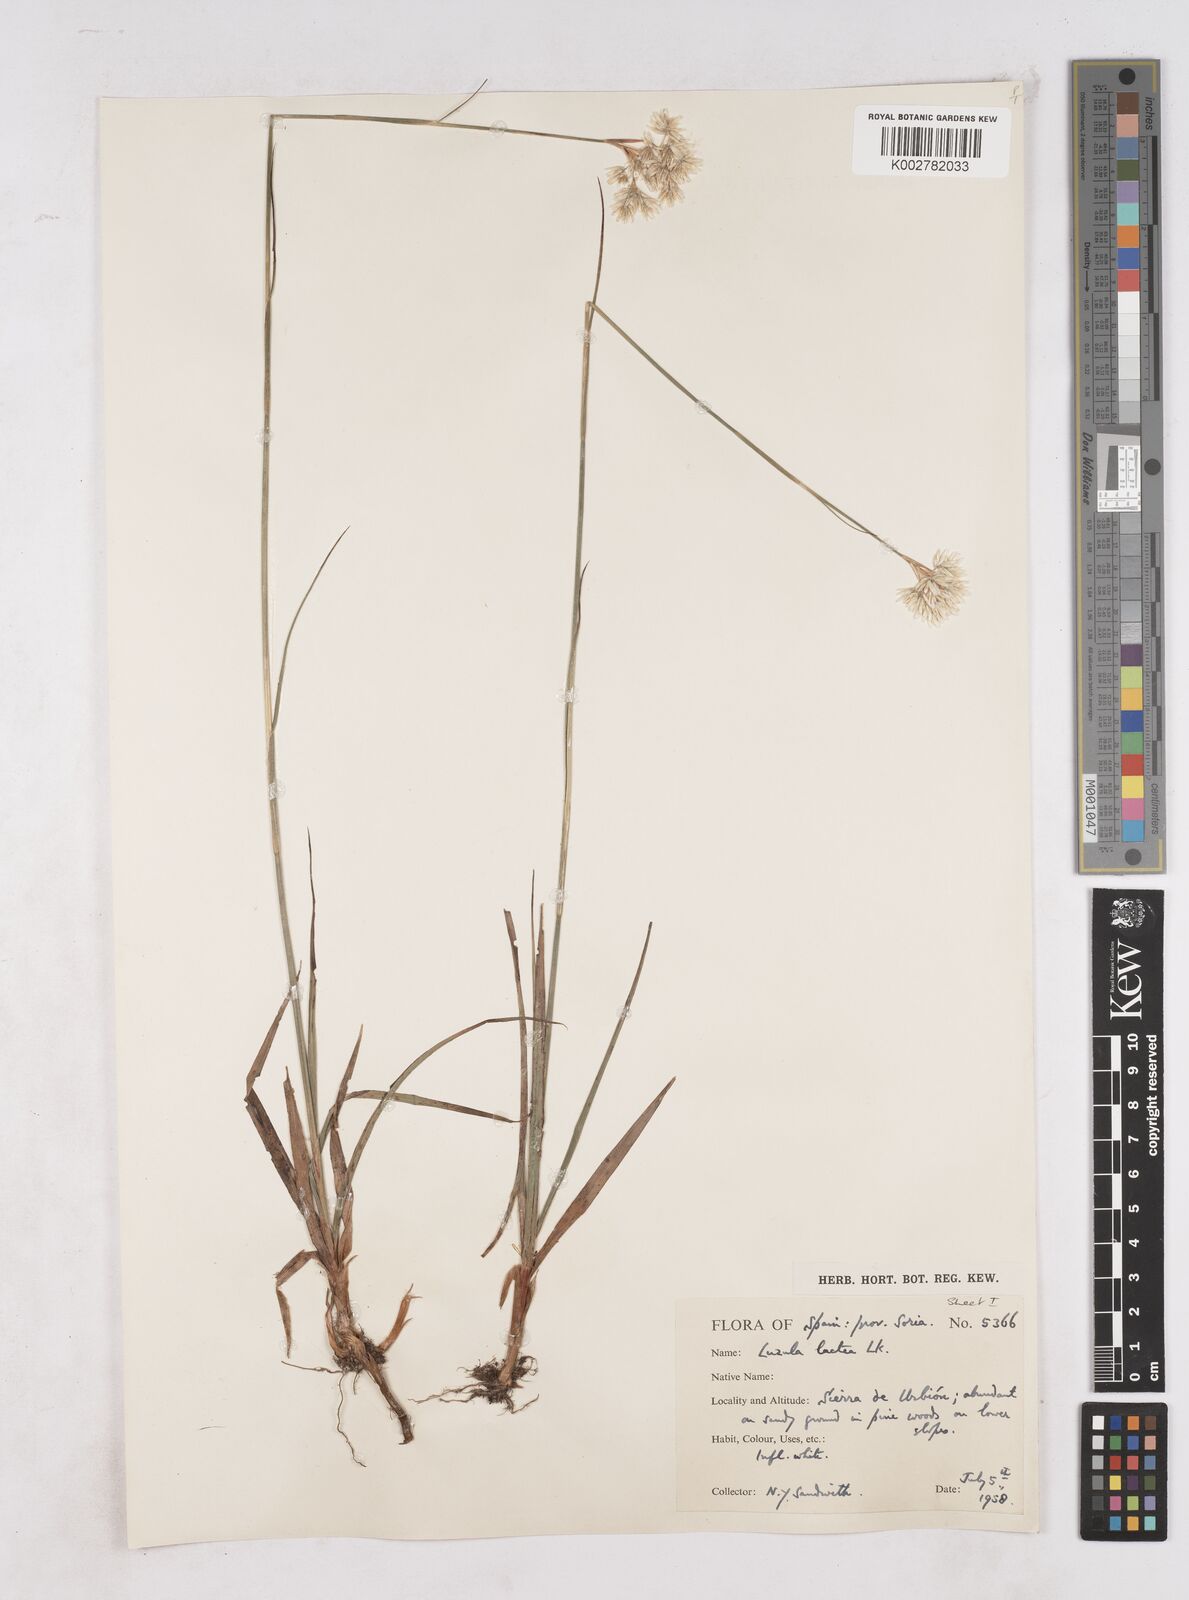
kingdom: Plantae
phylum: Tracheophyta
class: Liliopsida
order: Poales
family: Juncaceae
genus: Luzula
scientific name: Luzula lactea
